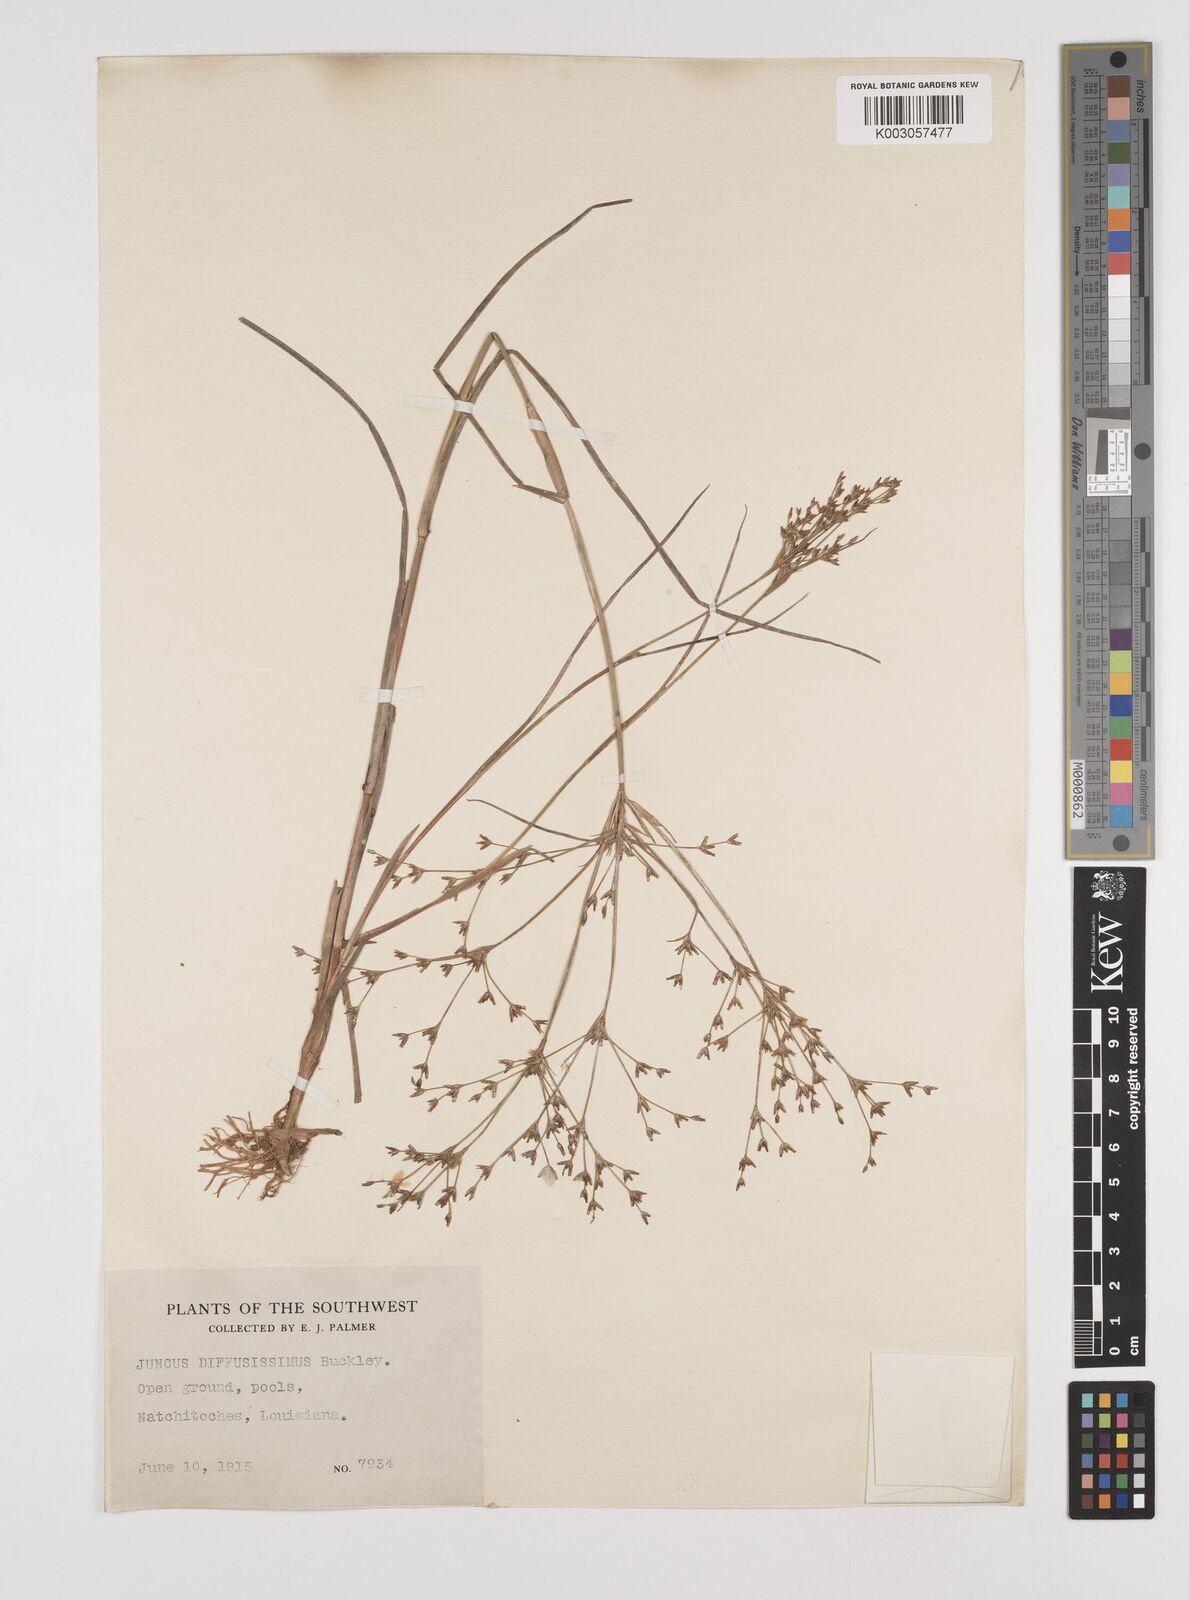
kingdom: Plantae
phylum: Tracheophyta
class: Liliopsida
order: Poales
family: Juncaceae
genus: Juncus
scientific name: Juncus diffusissimus
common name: Slimpod rush
